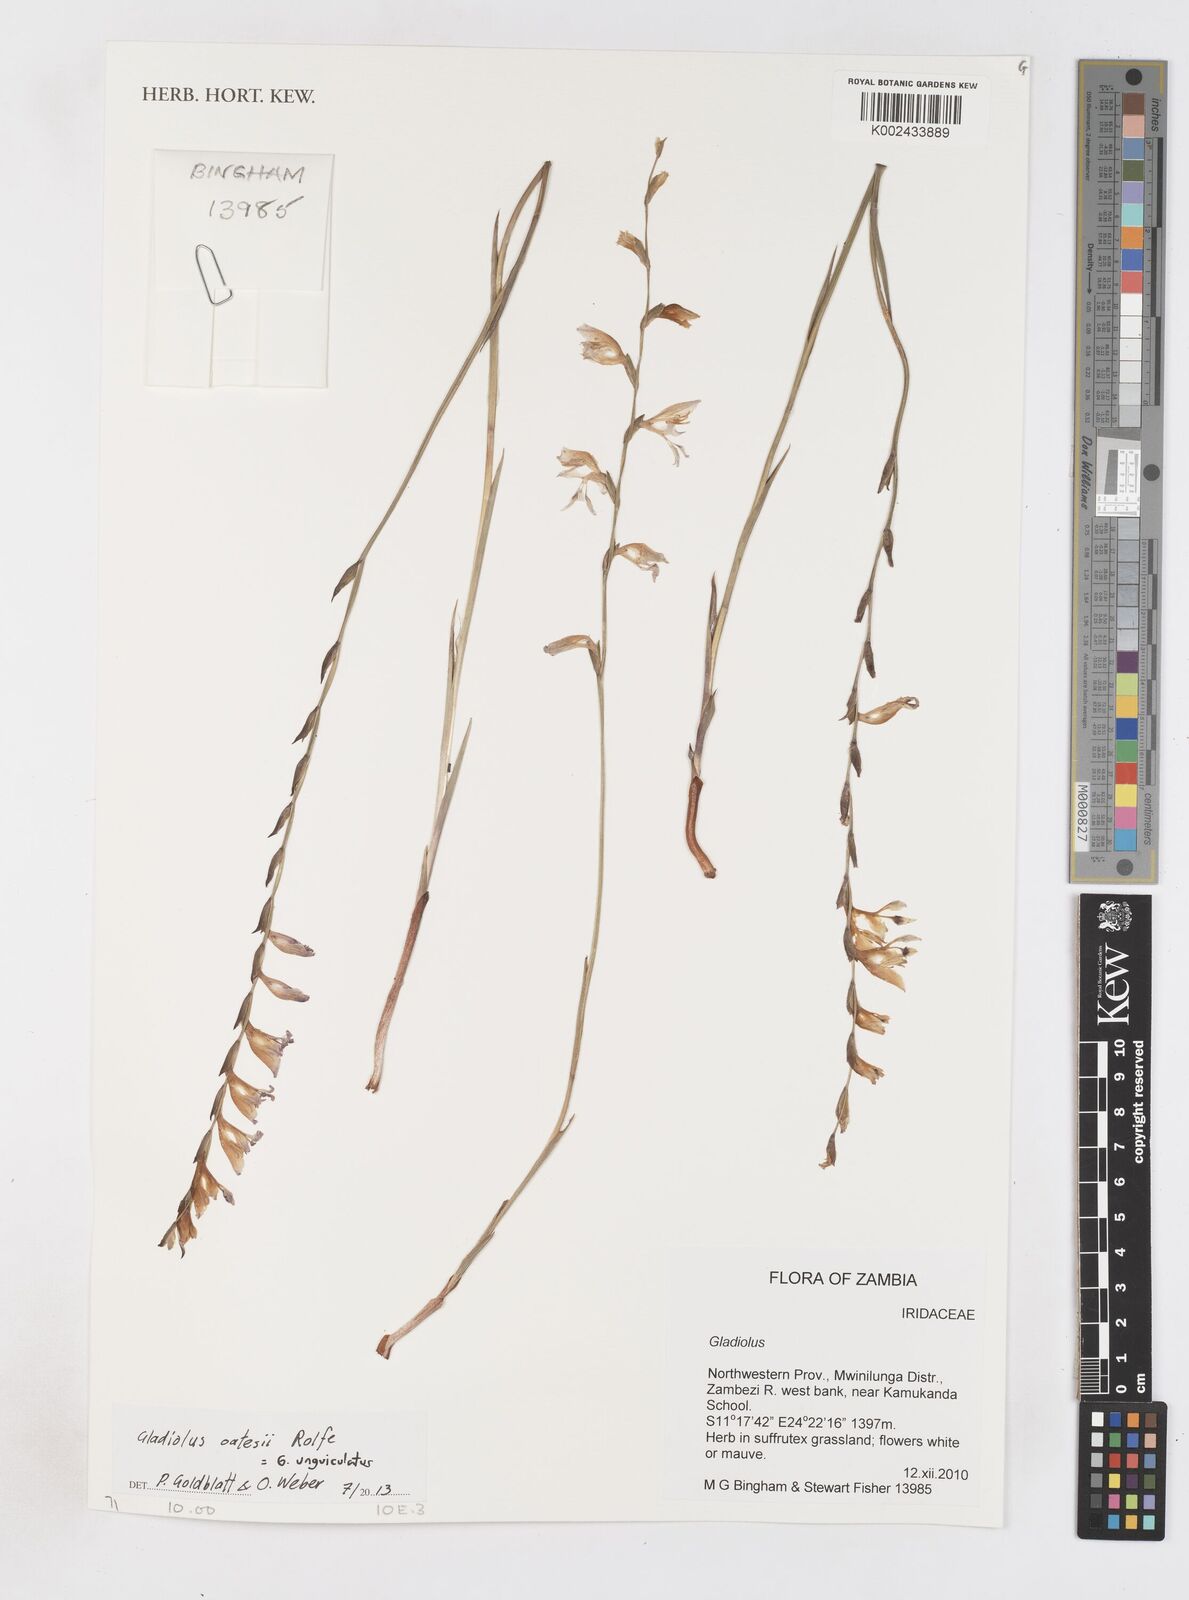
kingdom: Plantae
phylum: Tracheophyta
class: Liliopsida
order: Asparagales
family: Iridaceae
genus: Gladiolus
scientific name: Gladiolus unguiculatus
